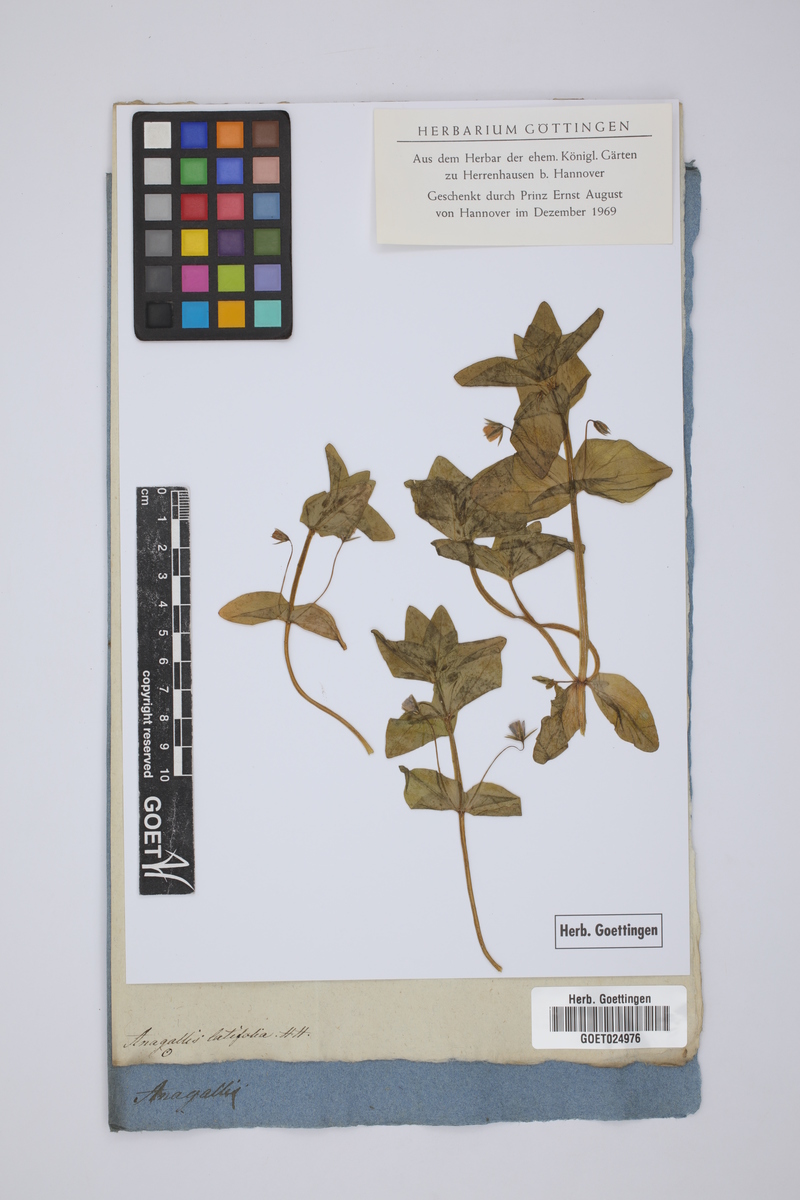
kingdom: Plantae
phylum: Tracheophyta
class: Magnoliopsida
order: Ericales
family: Primulaceae
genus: Lysimachia
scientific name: Lysimachia arvensis
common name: Scarlet pimpernel
